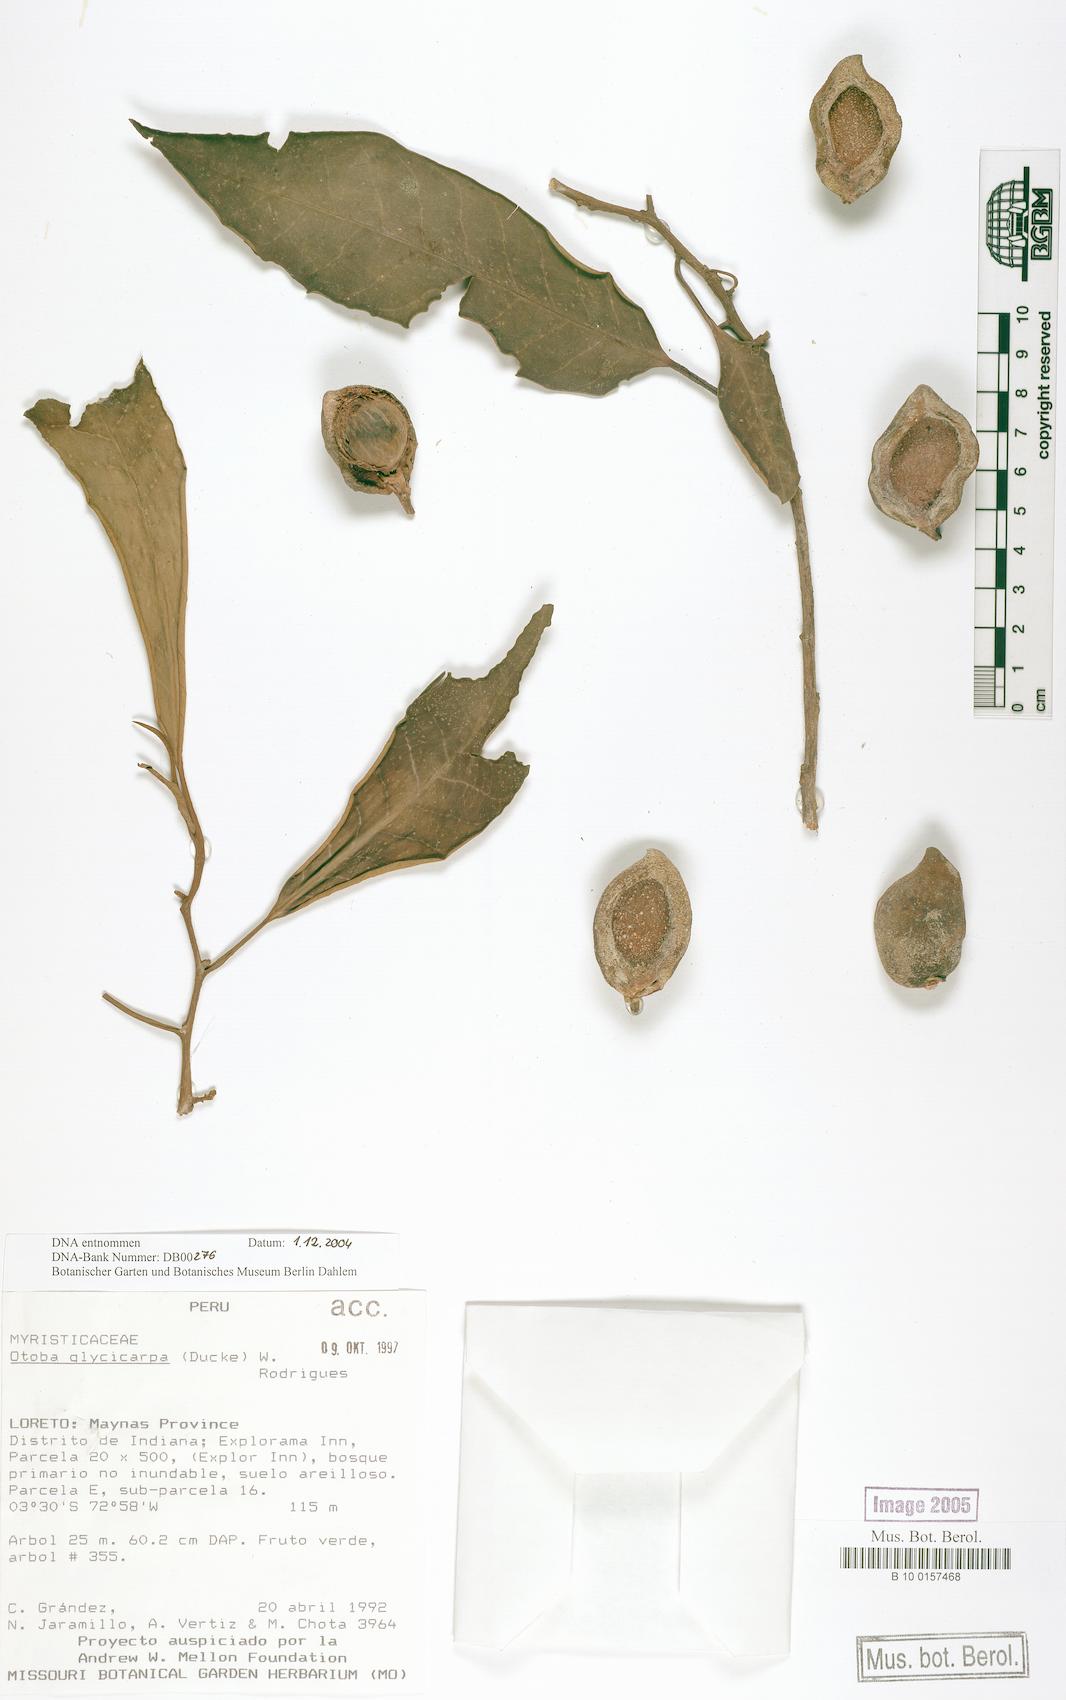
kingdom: Plantae
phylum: Tracheophyta
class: Magnoliopsida
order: Magnoliales
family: Myristicaceae
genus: Otoba
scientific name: Otoba glycycarpa
